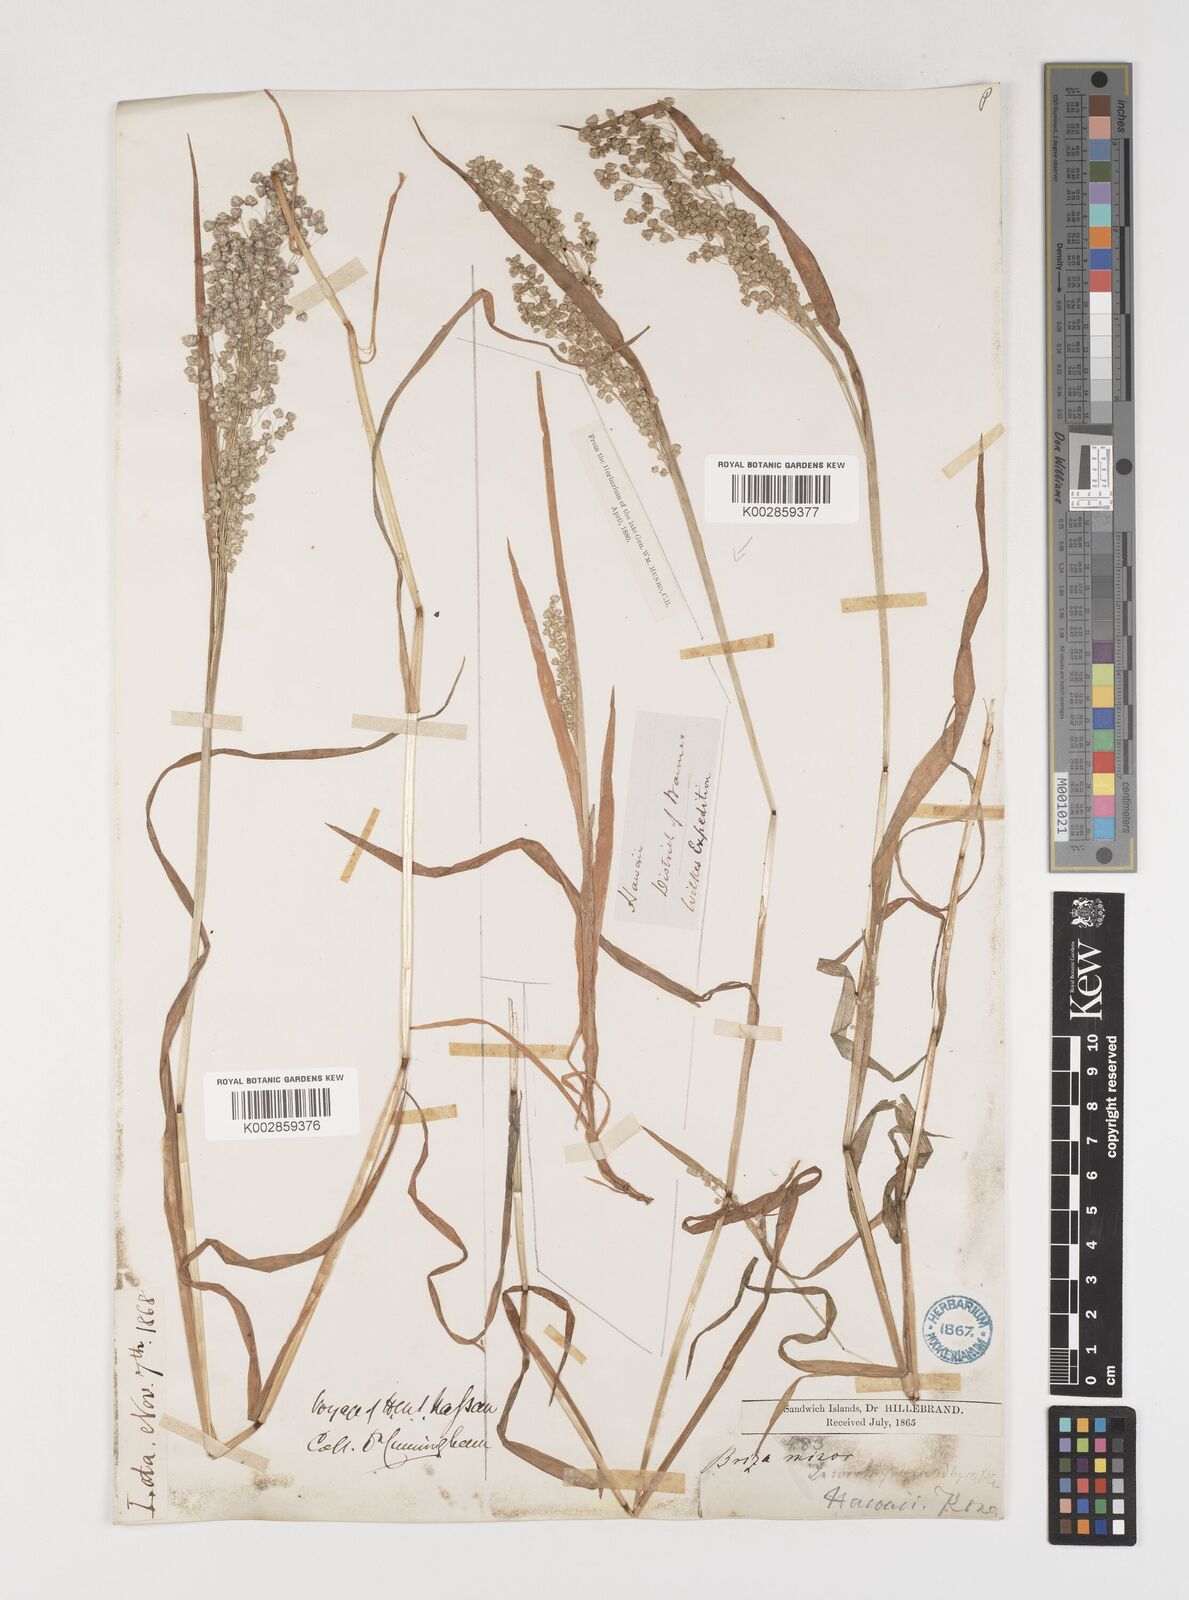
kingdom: Plantae
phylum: Tracheophyta
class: Liliopsida
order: Poales
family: Poaceae
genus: Briza
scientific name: Briza minor
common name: Lesser quaking-grass
